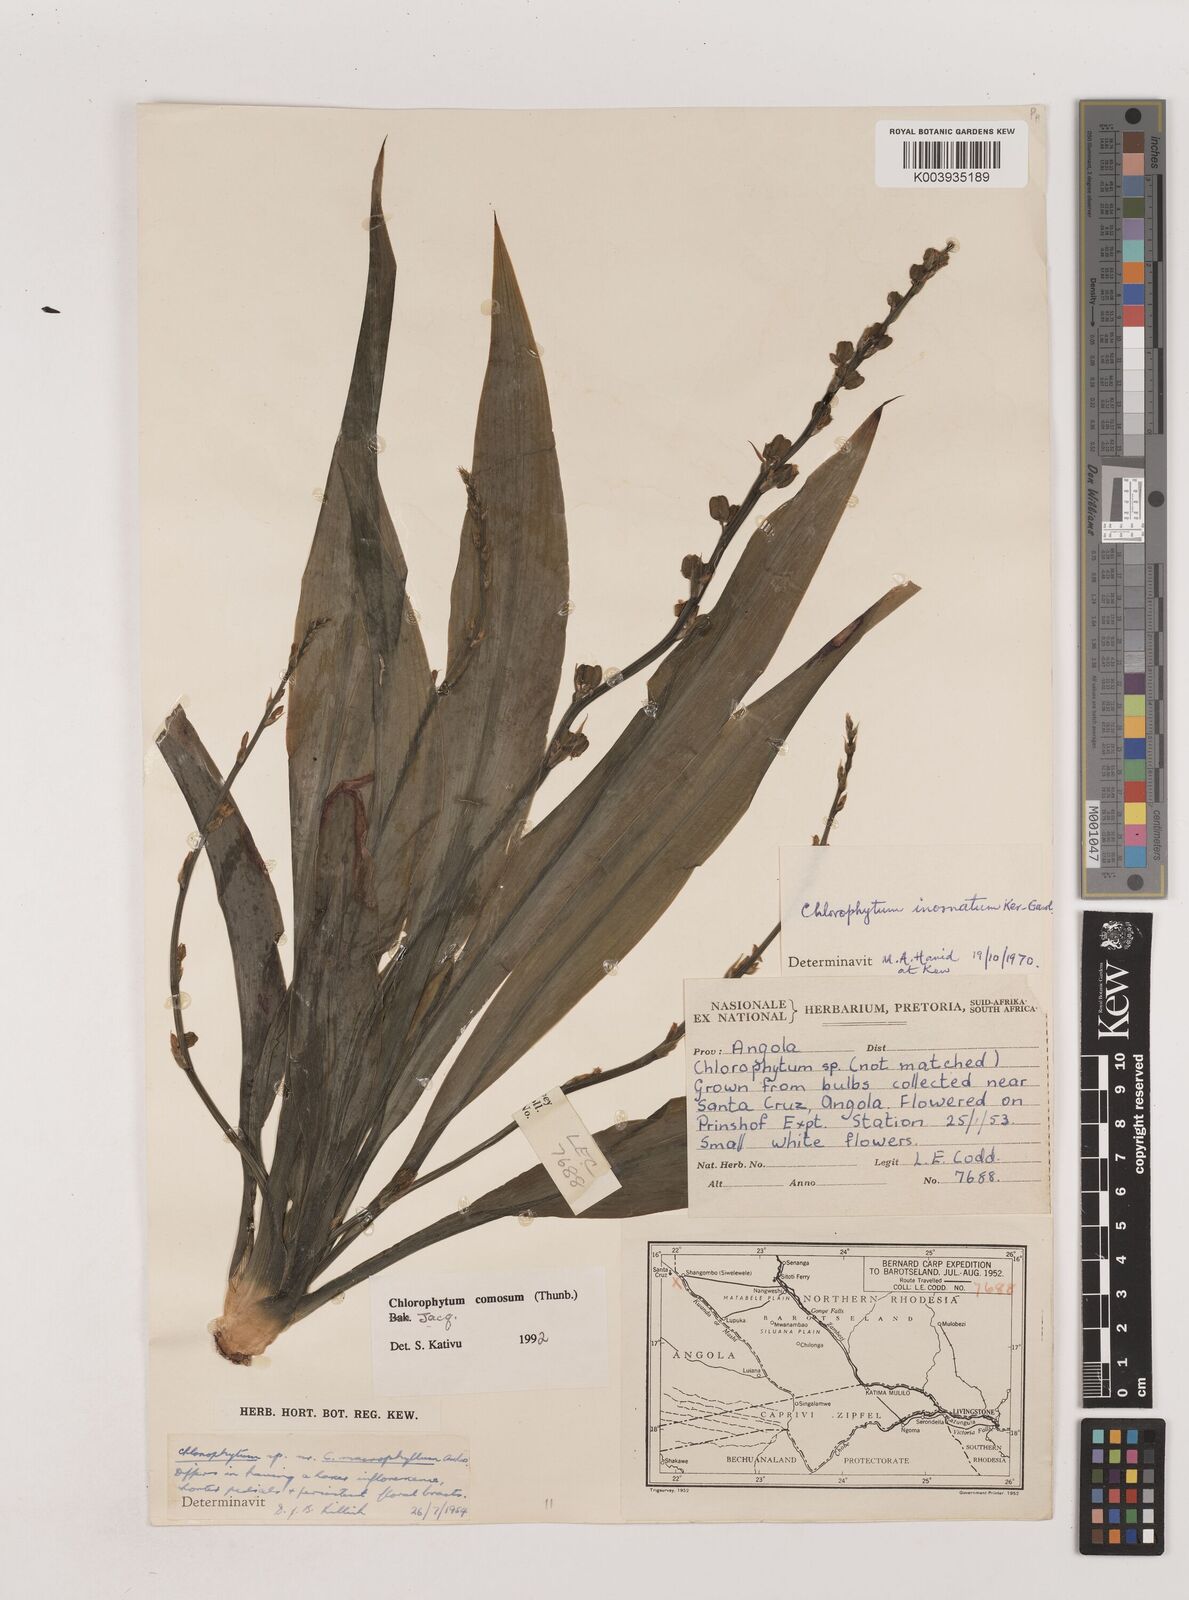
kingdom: Plantae
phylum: Tracheophyta
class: Liliopsida
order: Asparagales
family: Asparagaceae
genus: Chlorophytum
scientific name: Chlorophytum comosum
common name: Spider plant
